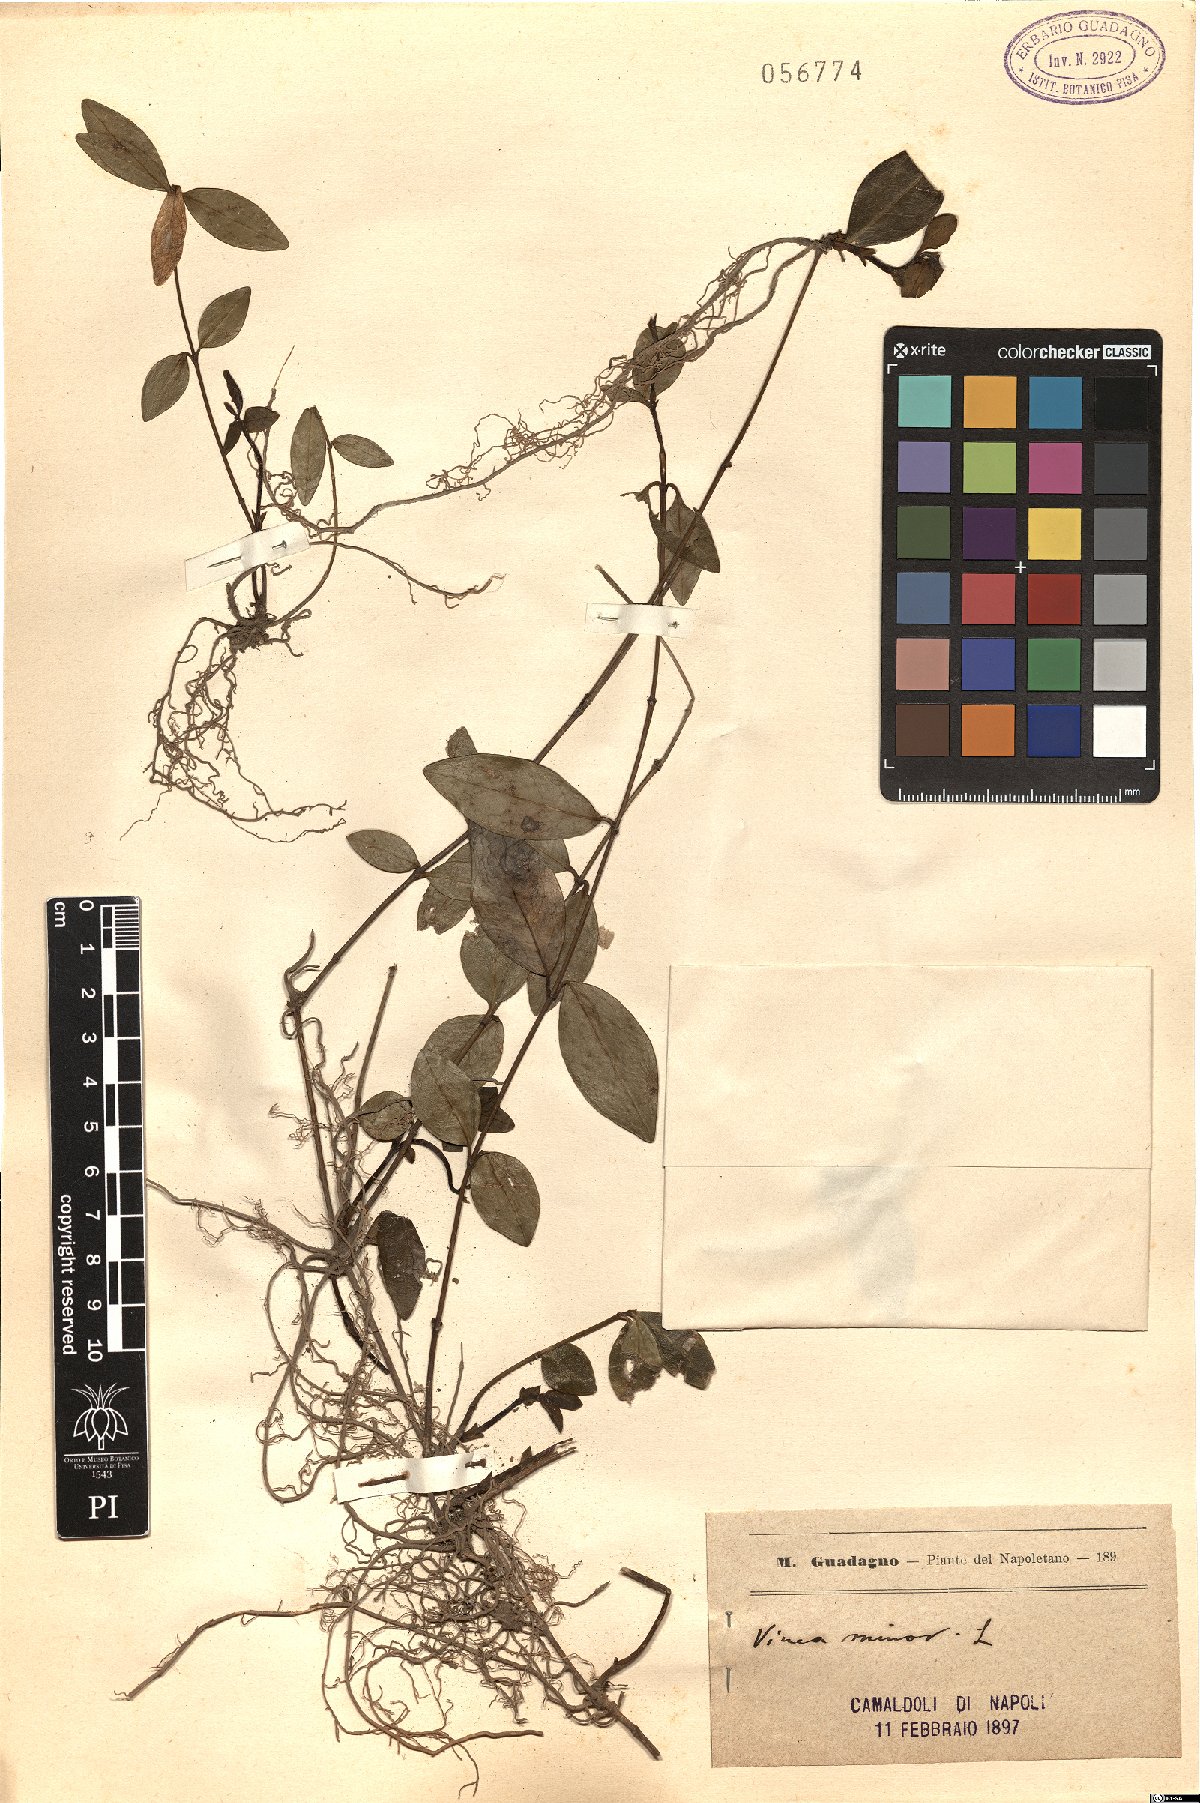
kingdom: Plantae
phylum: Tracheophyta
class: Magnoliopsida
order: Gentianales
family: Apocynaceae
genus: Vinca
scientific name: Vinca minor
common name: Lesser periwinkle
